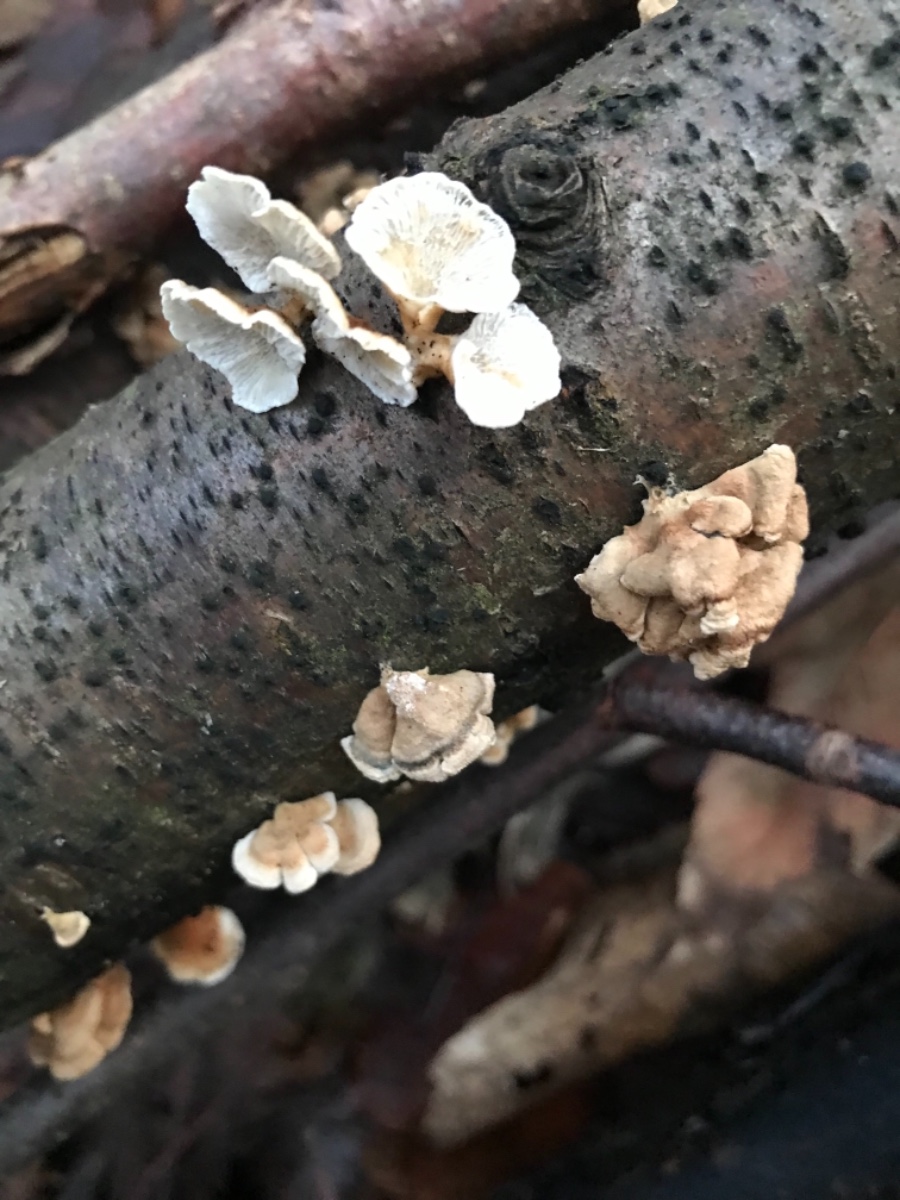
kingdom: Fungi
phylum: Basidiomycota
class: Agaricomycetes
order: Amylocorticiales
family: Amylocorticiaceae
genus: Plicaturopsis
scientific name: Plicaturopsis crispa
